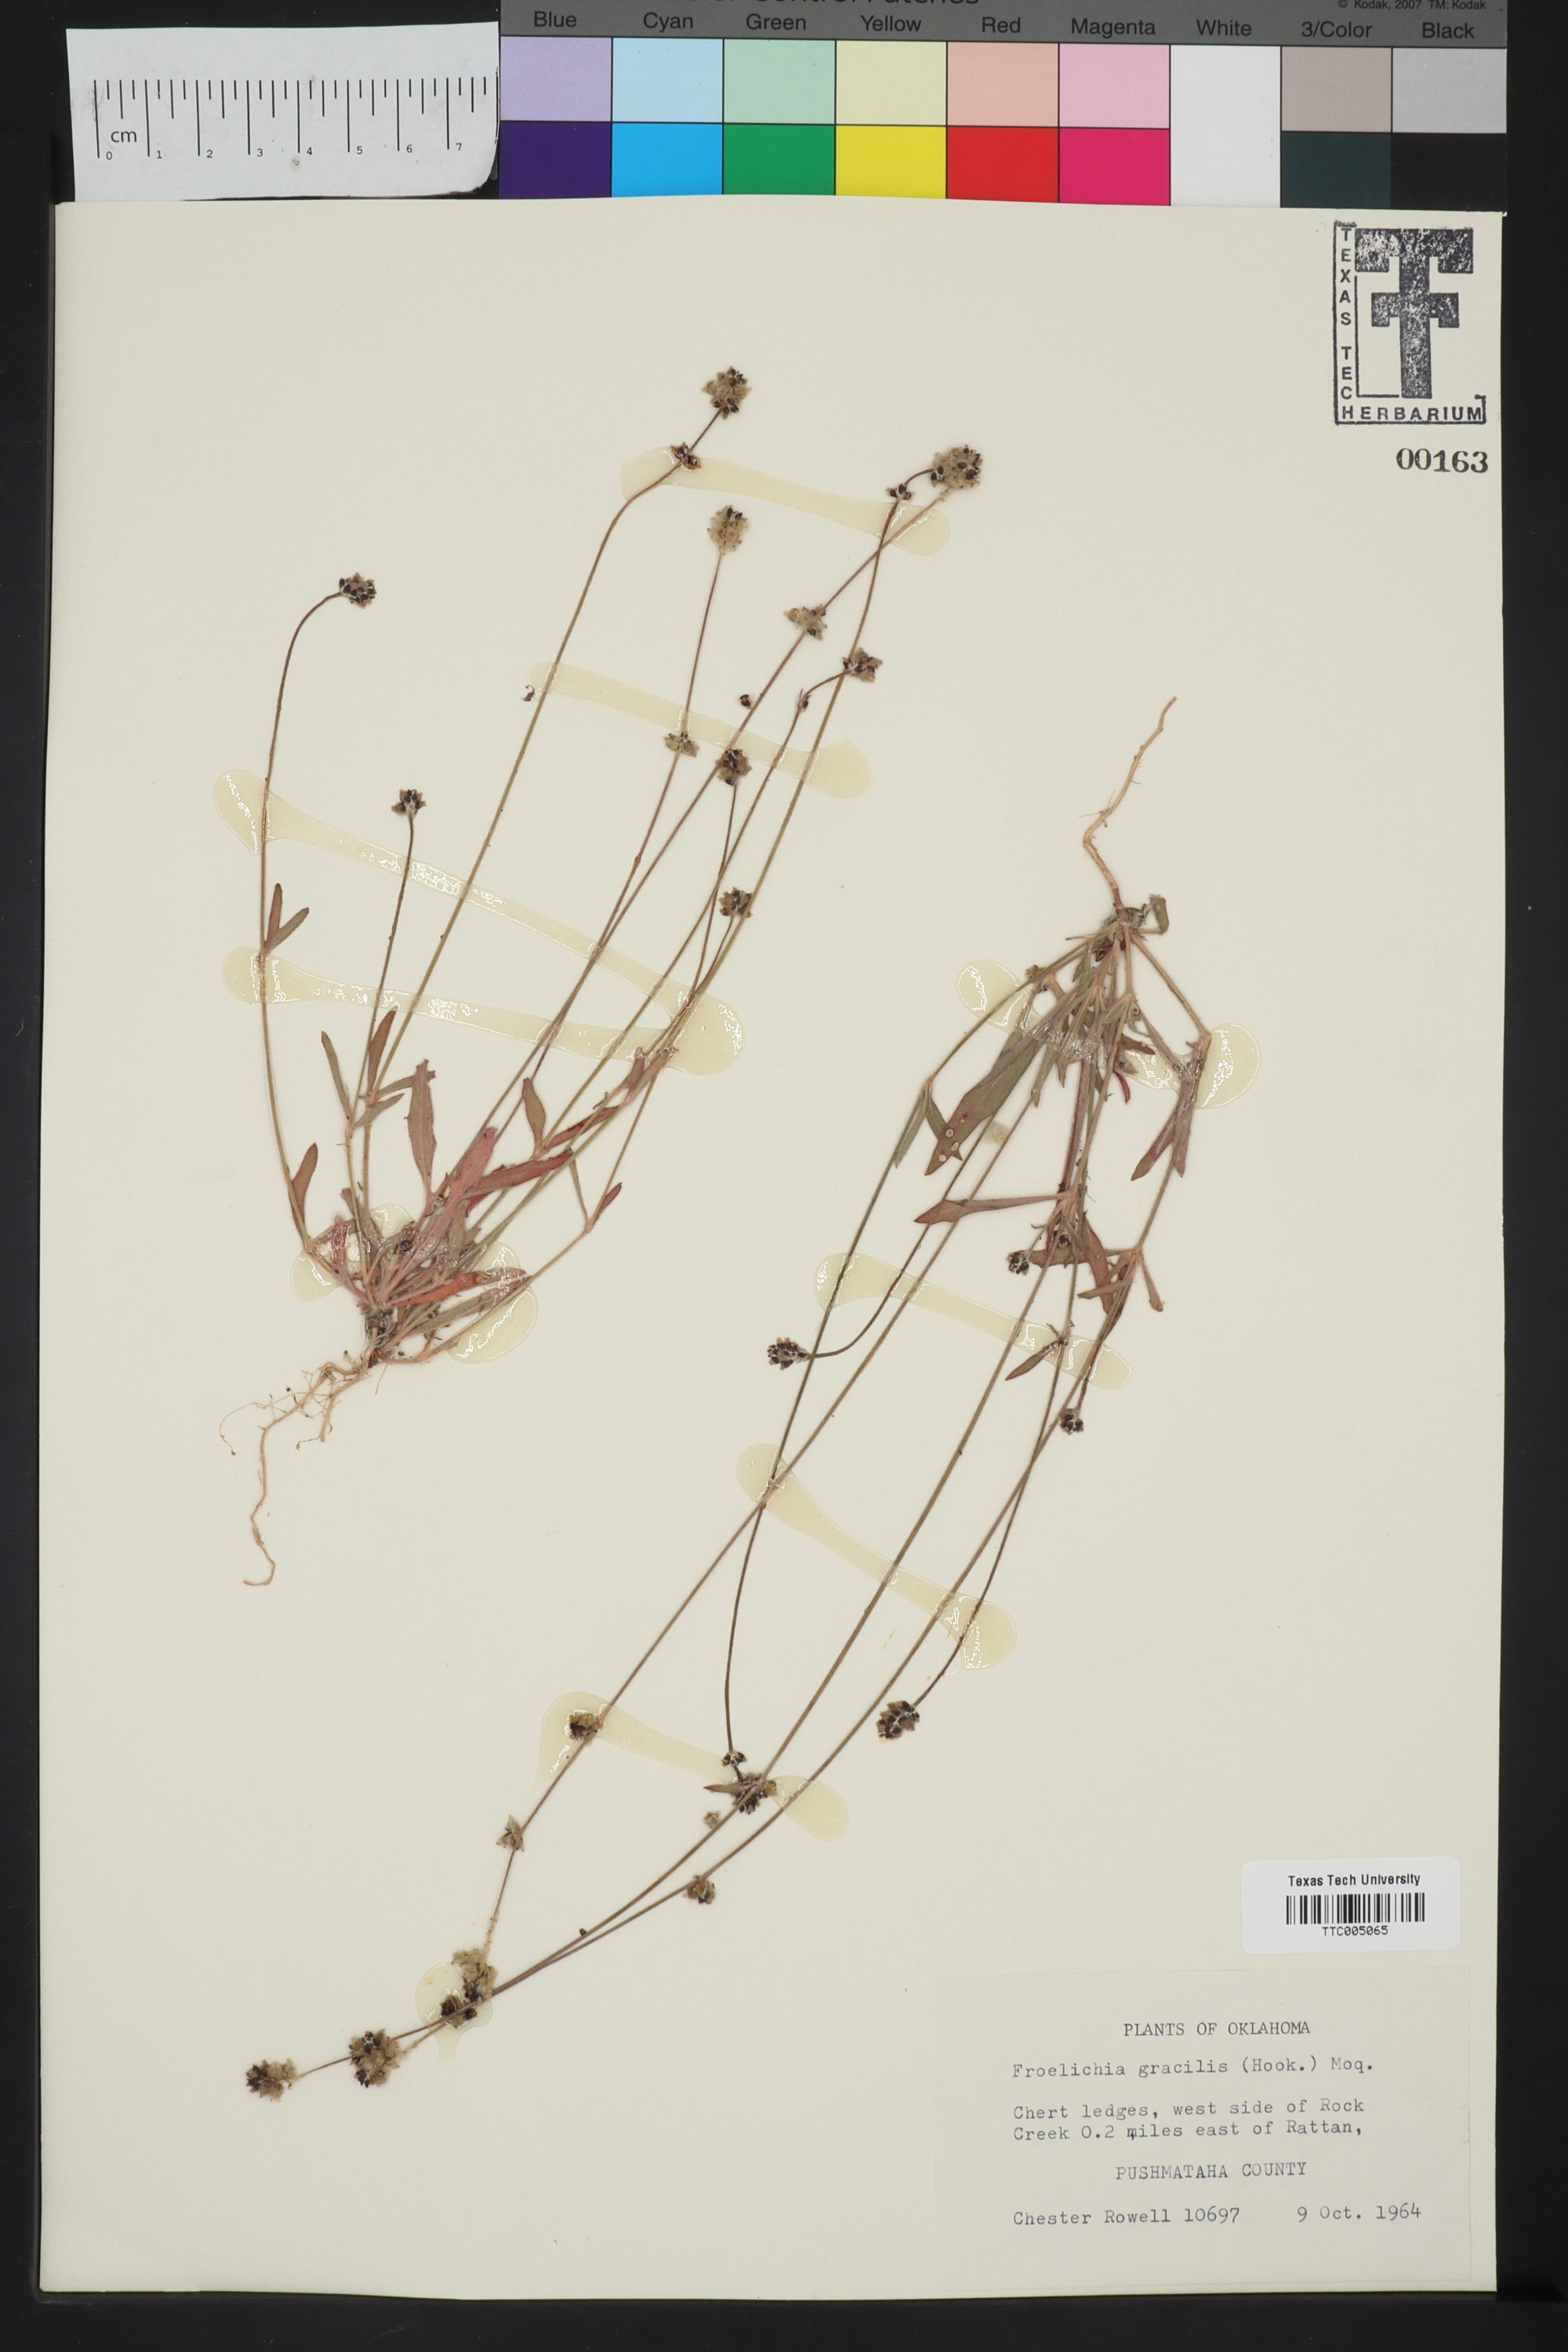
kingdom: Plantae
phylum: Tracheophyta
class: Magnoliopsida
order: Caryophyllales
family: Amaranthaceae
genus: Froelichia
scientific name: Froelichia gracilis
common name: Slender cottonweed
